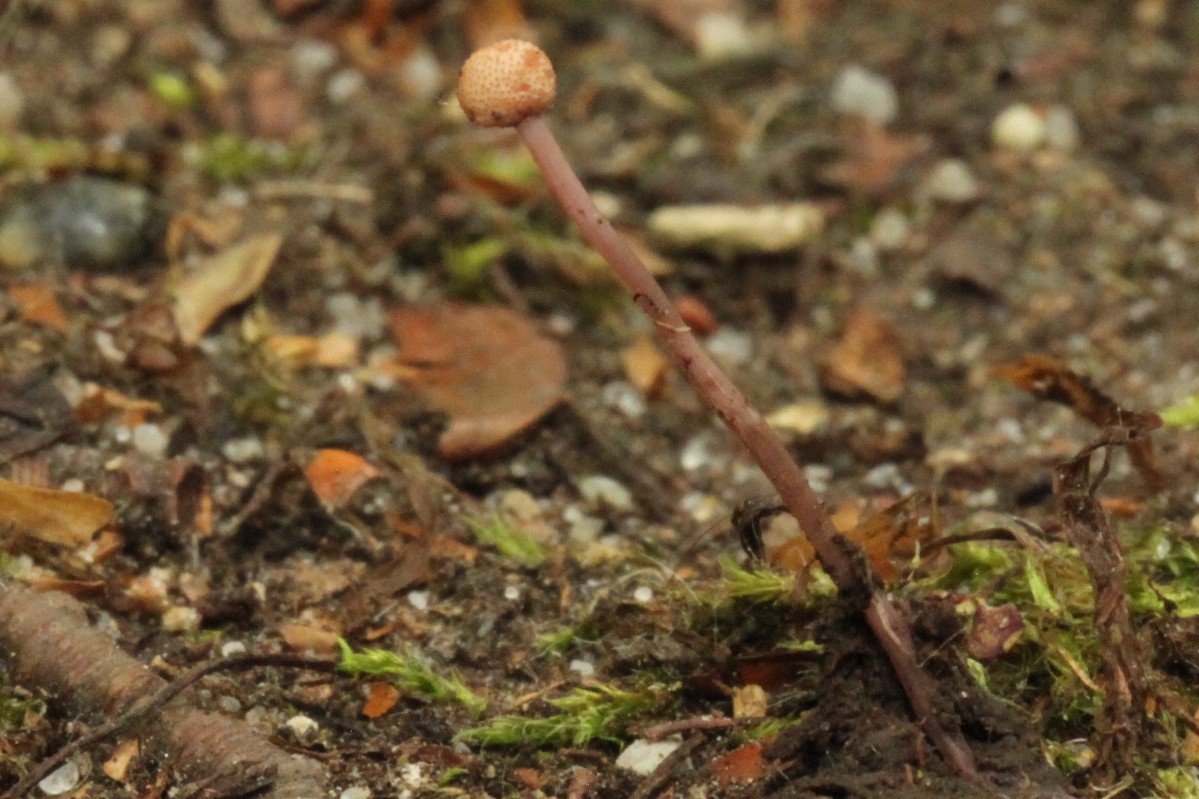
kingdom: Fungi
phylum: Ascomycota
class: Sordariomycetes
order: Hypocreales
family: Clavicipitaceae
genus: Claviceps
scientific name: Claviceps purpurea
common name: almindelig meldrøjer
